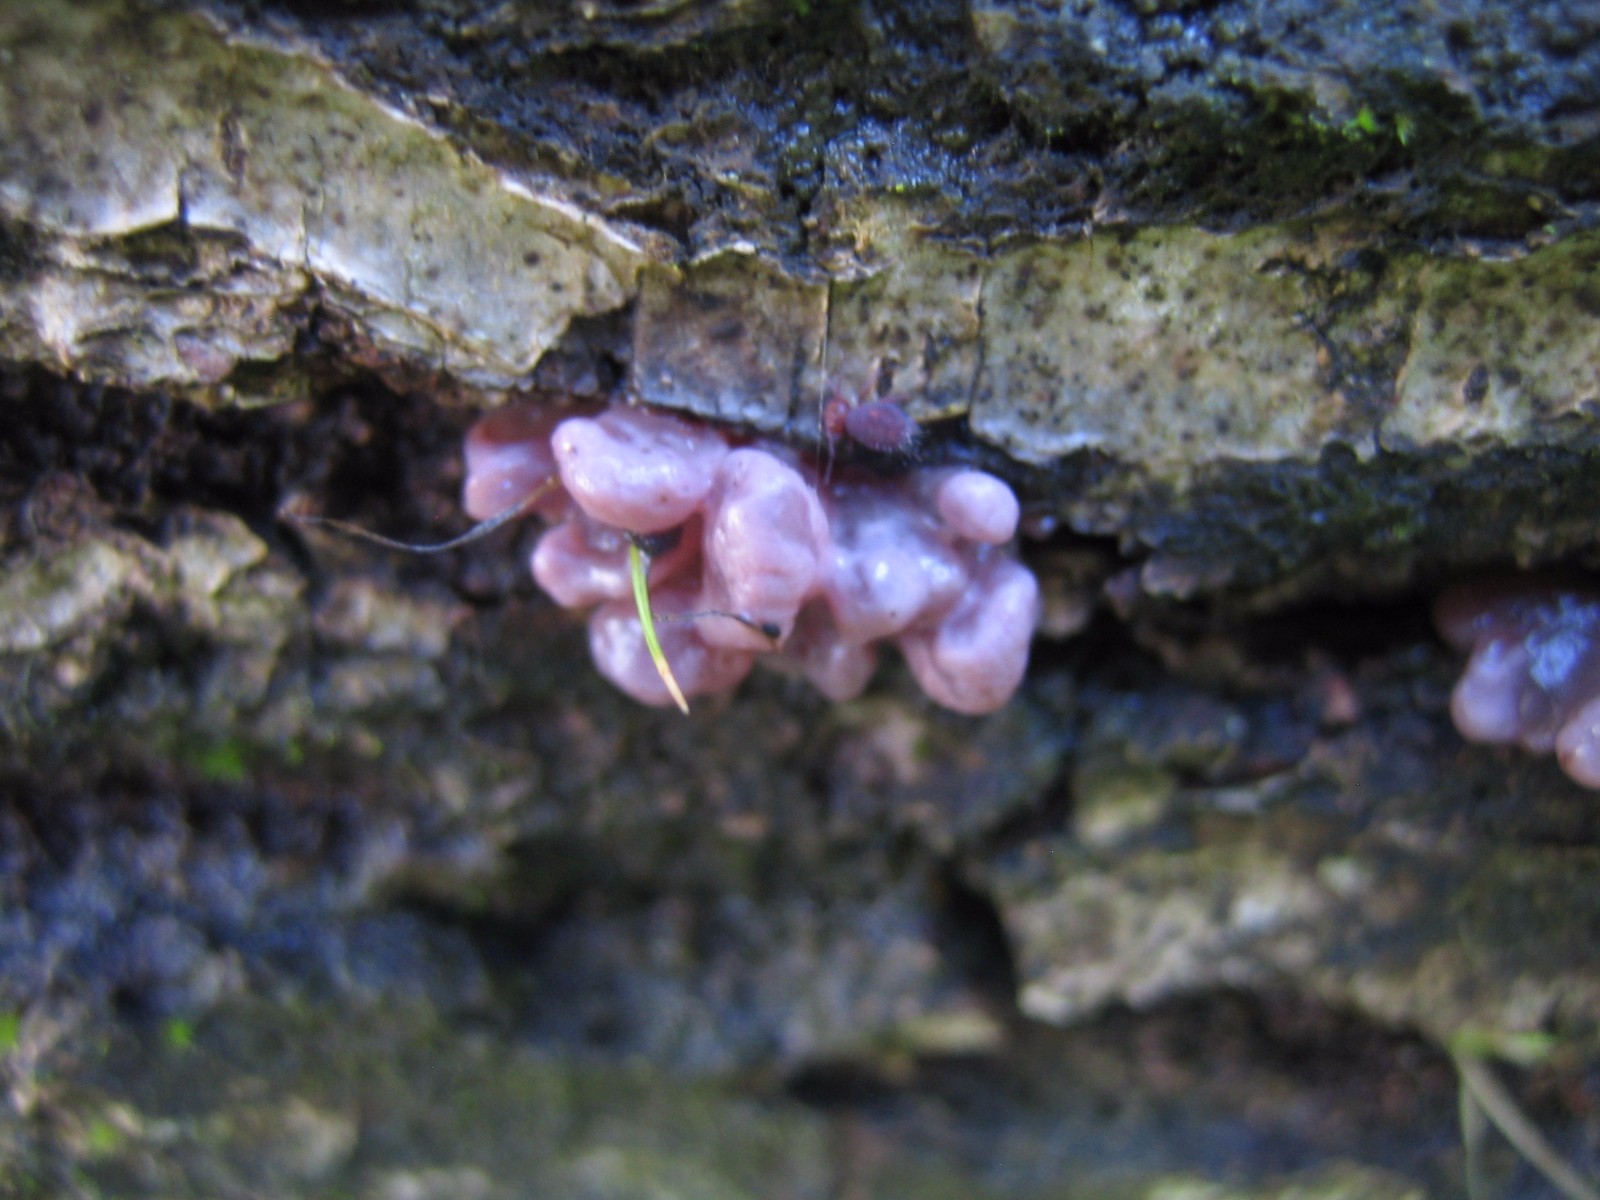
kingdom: Fungi
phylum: Ascomycota
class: Leotiomycetes
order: Helotiales
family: Gelatinodiscaceae
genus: Ascocoryne
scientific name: Ascocoryne sarcoides
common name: rødlilla sejskive
